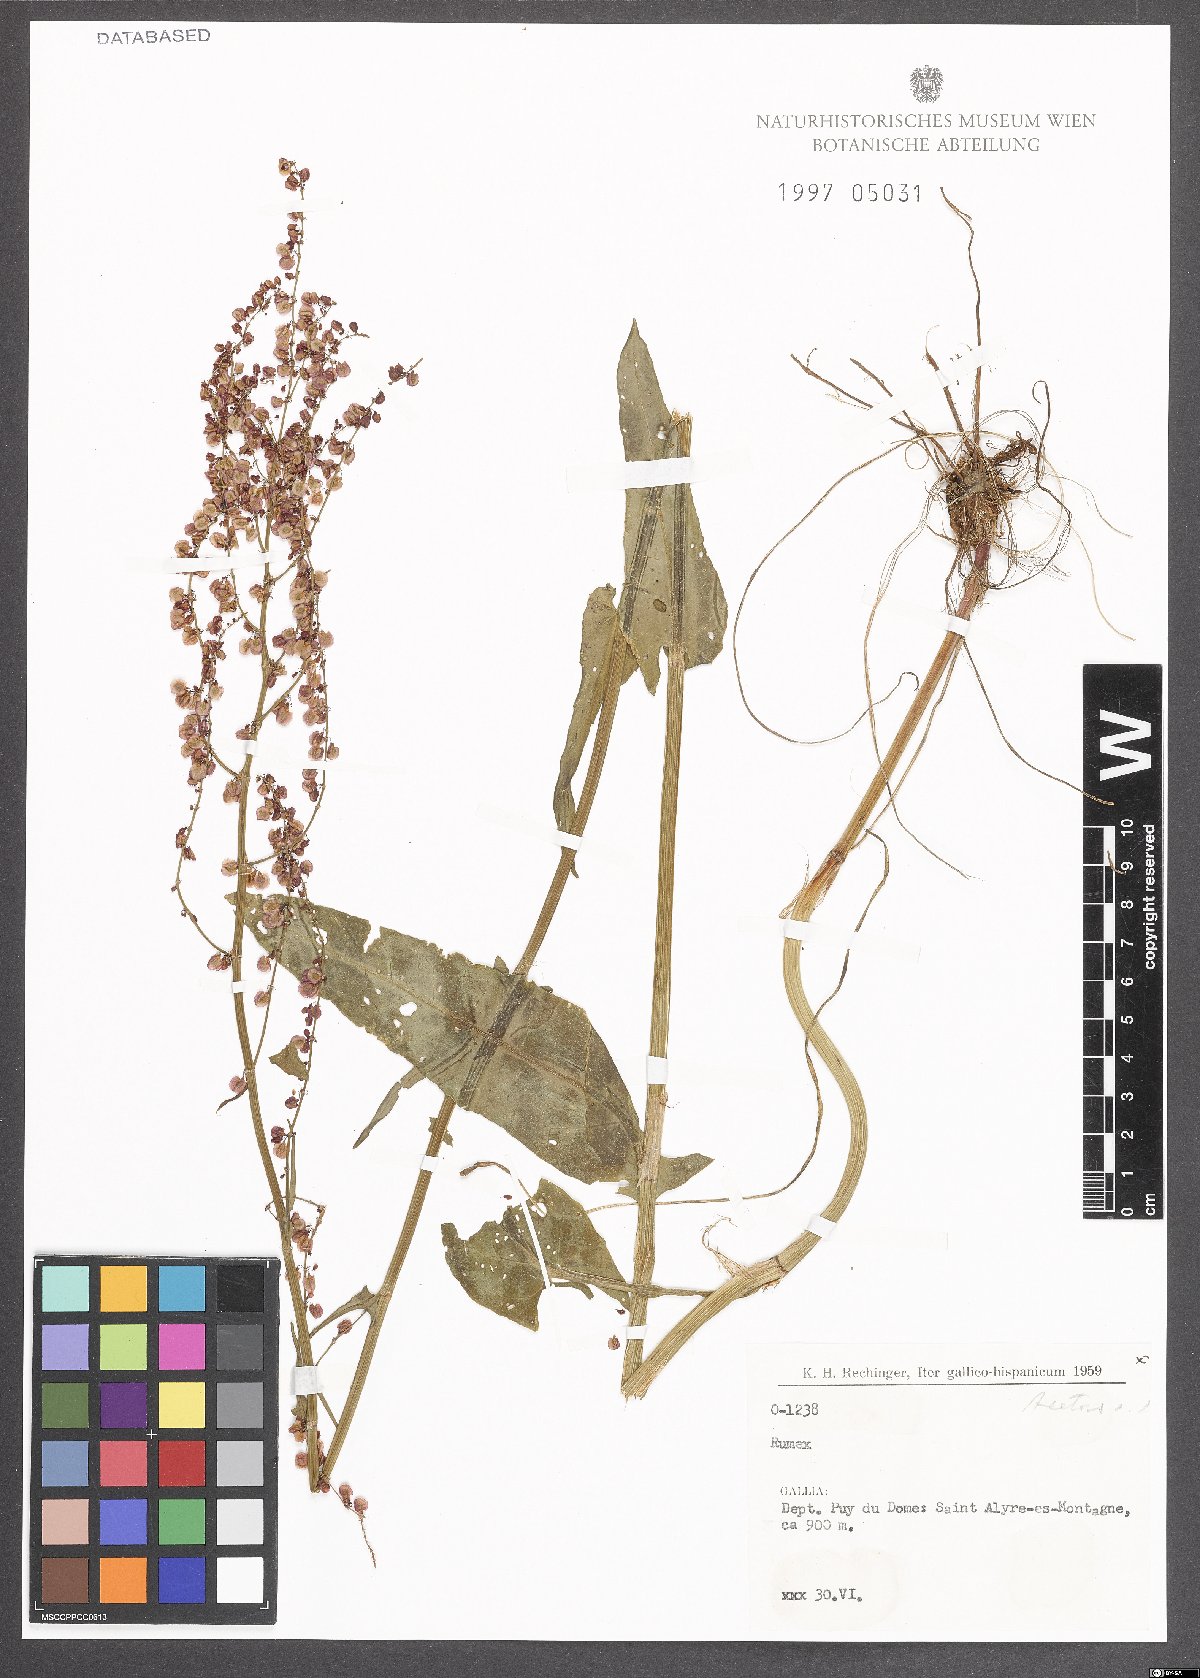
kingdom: Plantae
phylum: Tracheophyta
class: Magnoliopsida
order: Caryophyllales
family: Polygonaceae
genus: Rumex
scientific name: Rumex acetosa
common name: Garden sorrel
